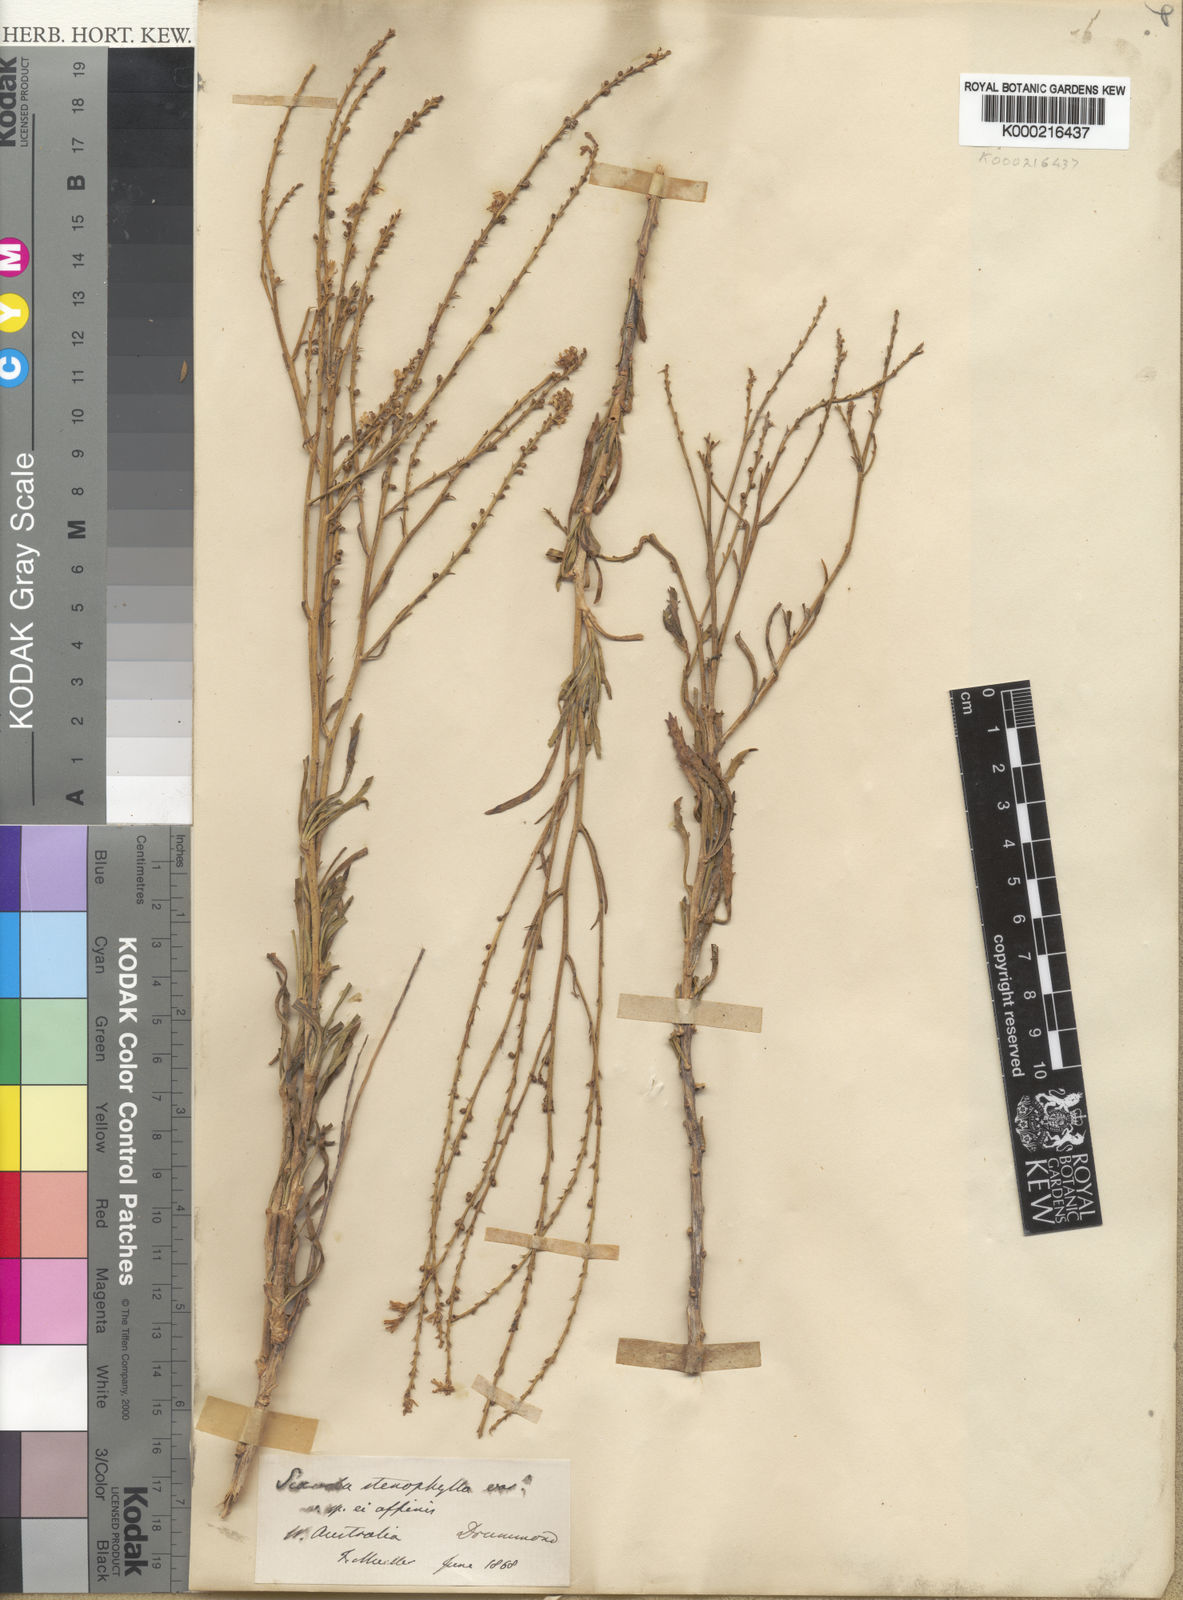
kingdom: Plantae
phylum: Tracheophyta
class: Magnoliopsida
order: Asterales
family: Goodeniaceae
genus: Goodenia
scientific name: Goodenia stenophylla
